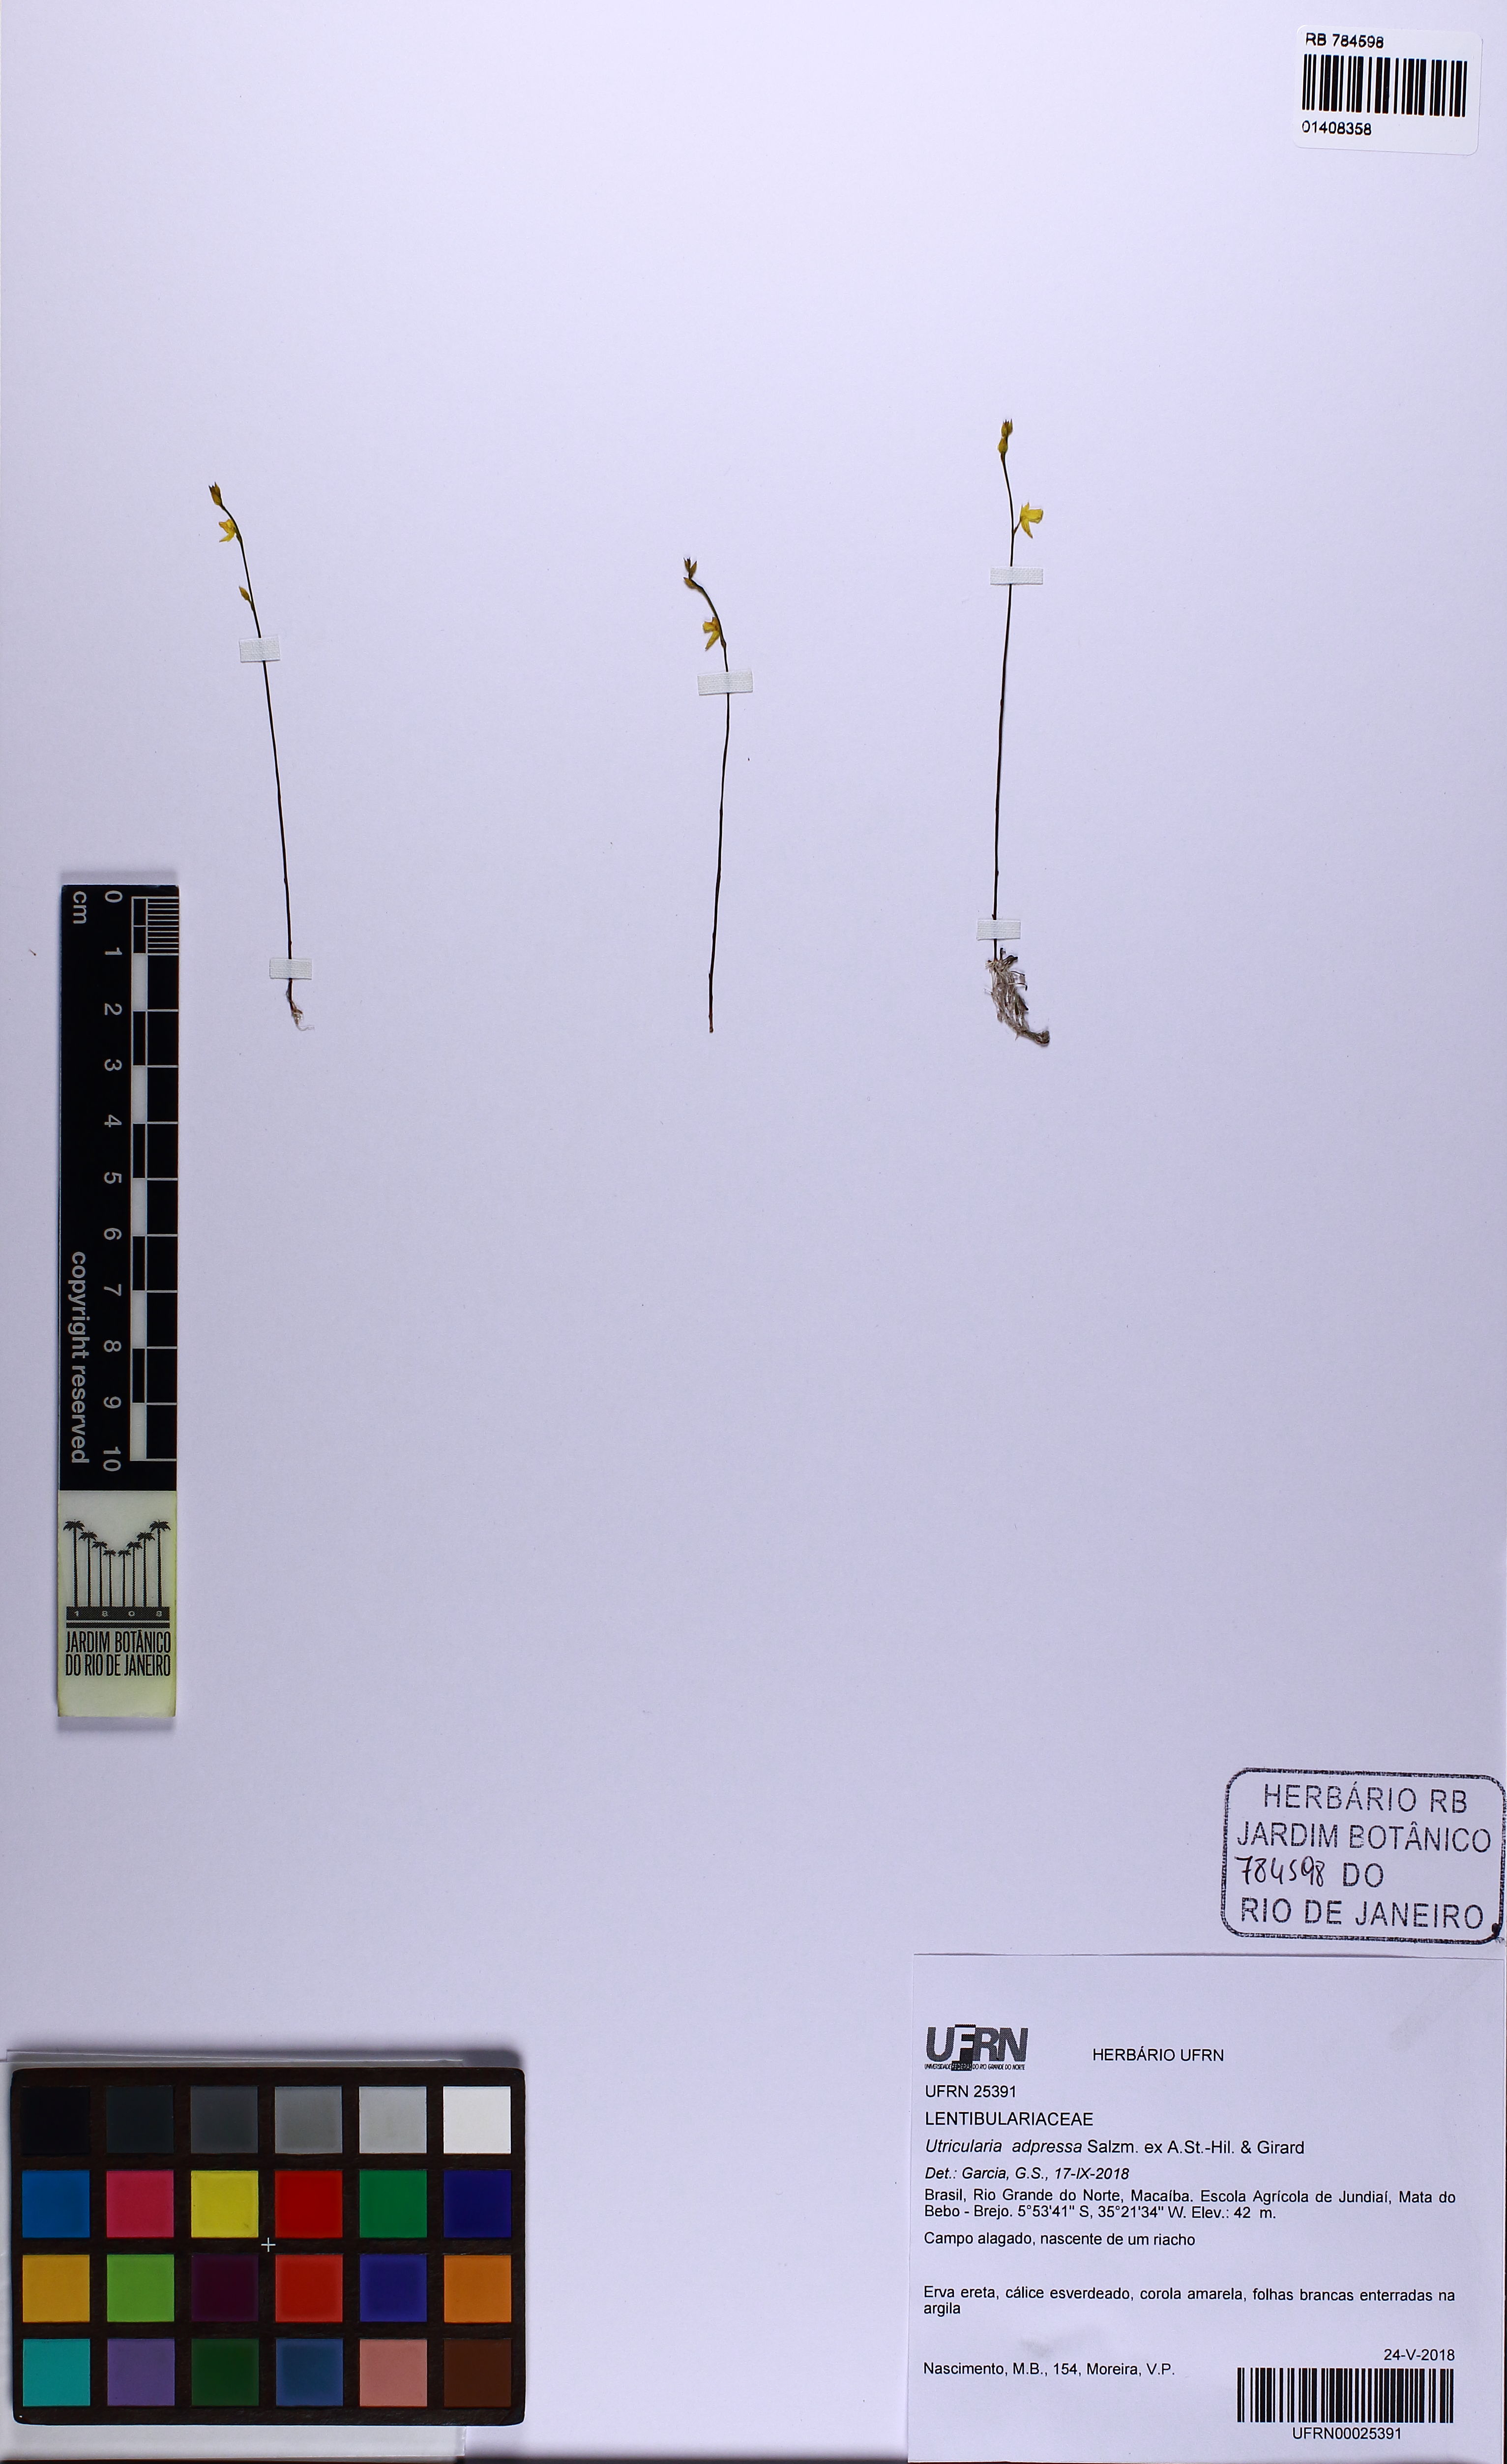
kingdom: Plantae
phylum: Tracheophyta
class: Magnoliopsida
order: Lamiales
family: Lentibulariaceae
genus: Utricularia
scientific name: Utricularia adpressa
